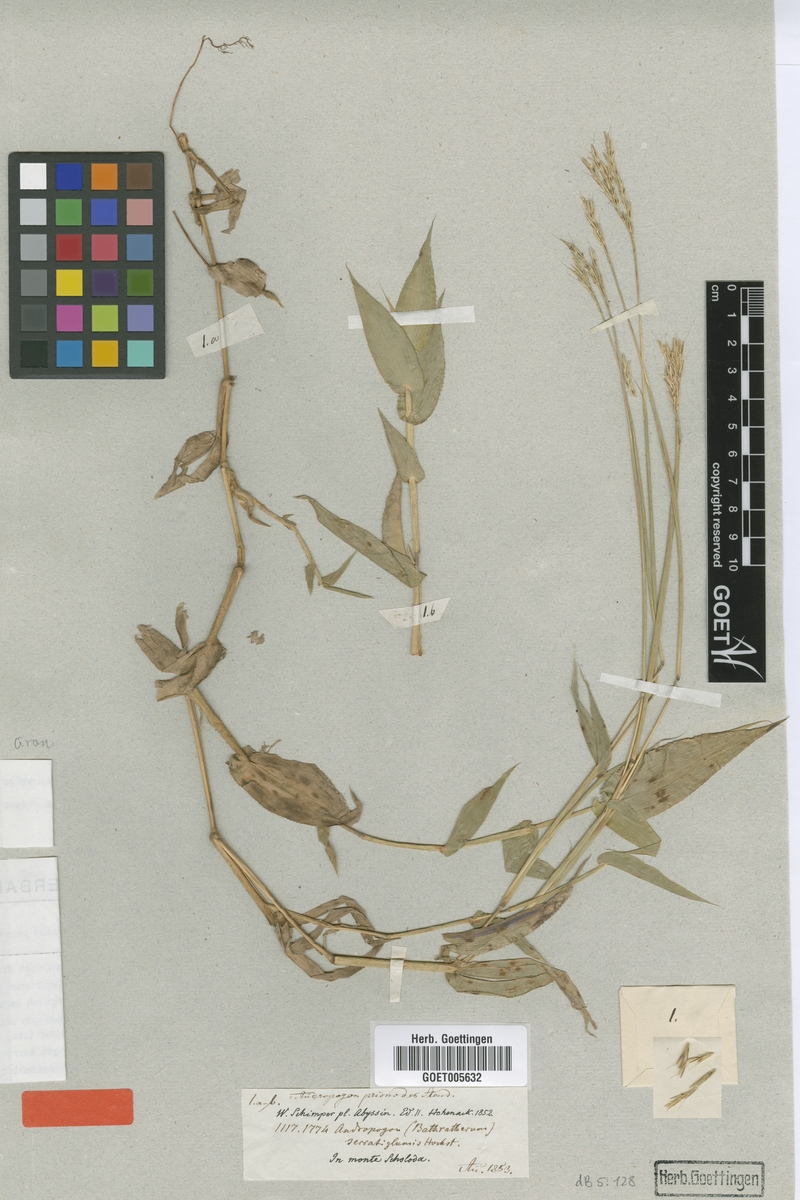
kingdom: Plantae
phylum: Tracheophyta
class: Liliopsida
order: Poales
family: Poaceae
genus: Arthraxon
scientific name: Arthraxon lanceolatus
